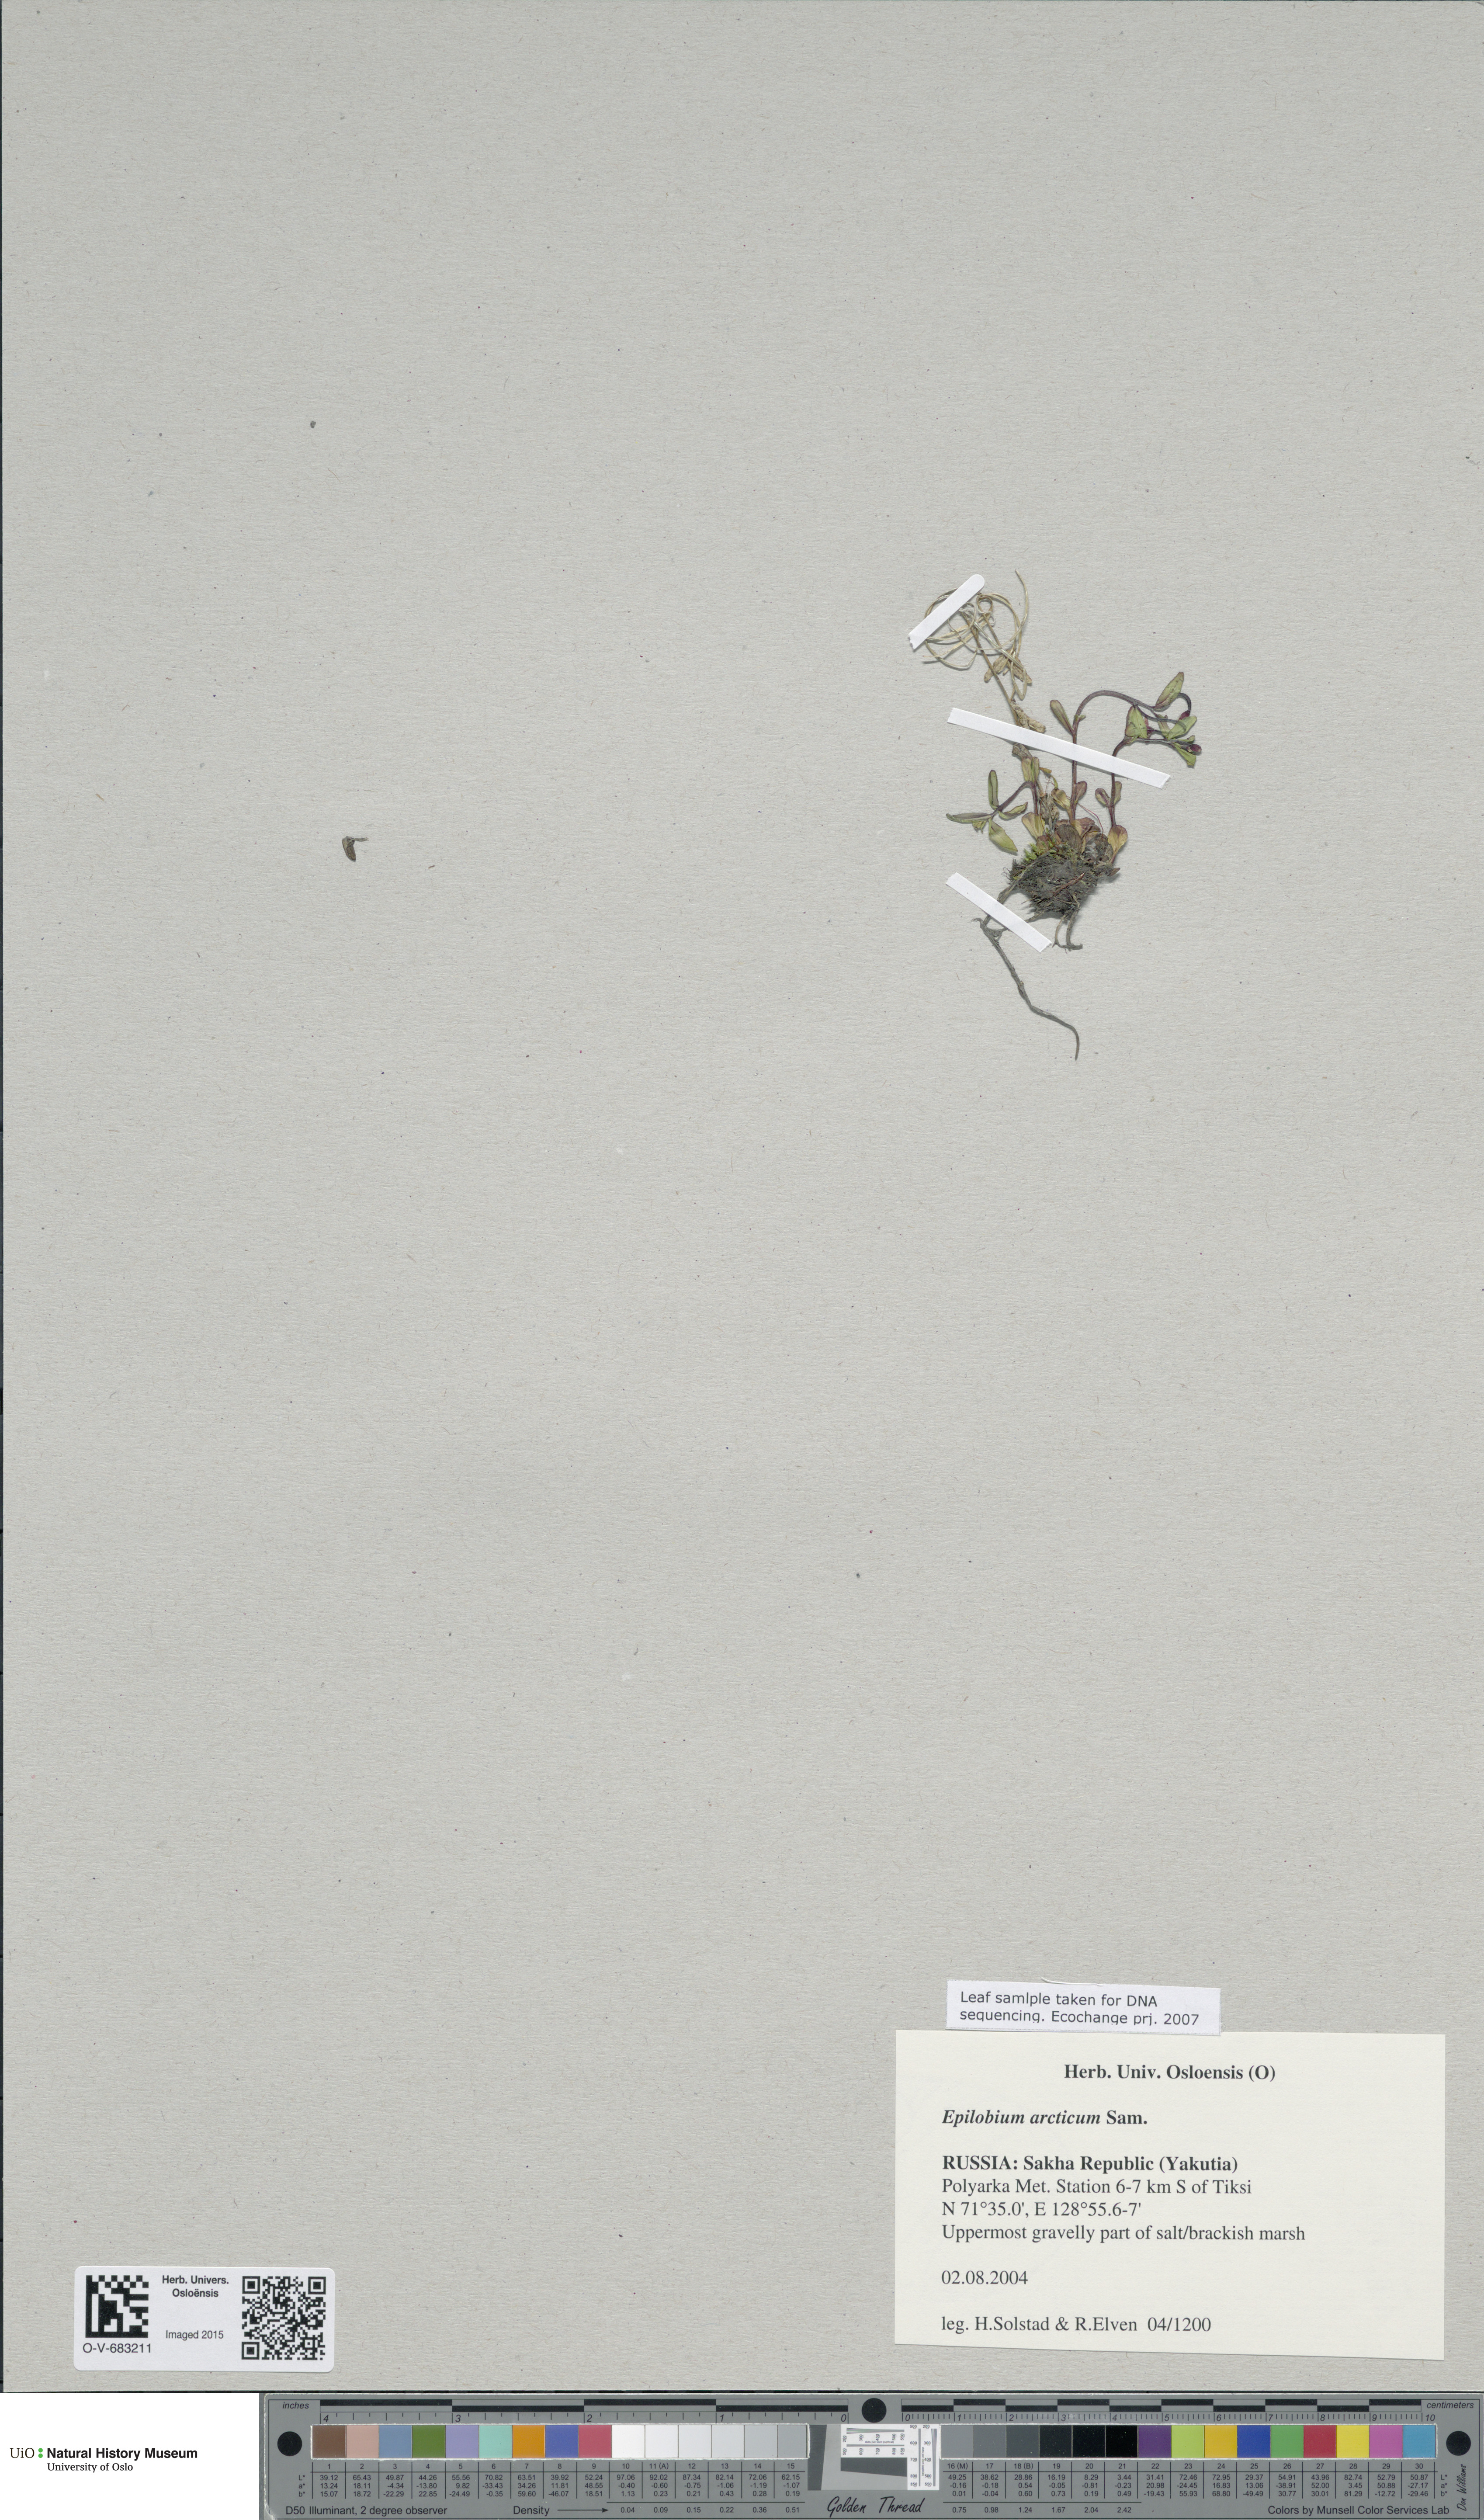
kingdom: Plantae
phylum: Tracheophyta
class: Magnoliopsida
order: Myrtales
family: Onagraceae
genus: Epilobium
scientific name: Epilobium arcticum
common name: Arctic willowherb
